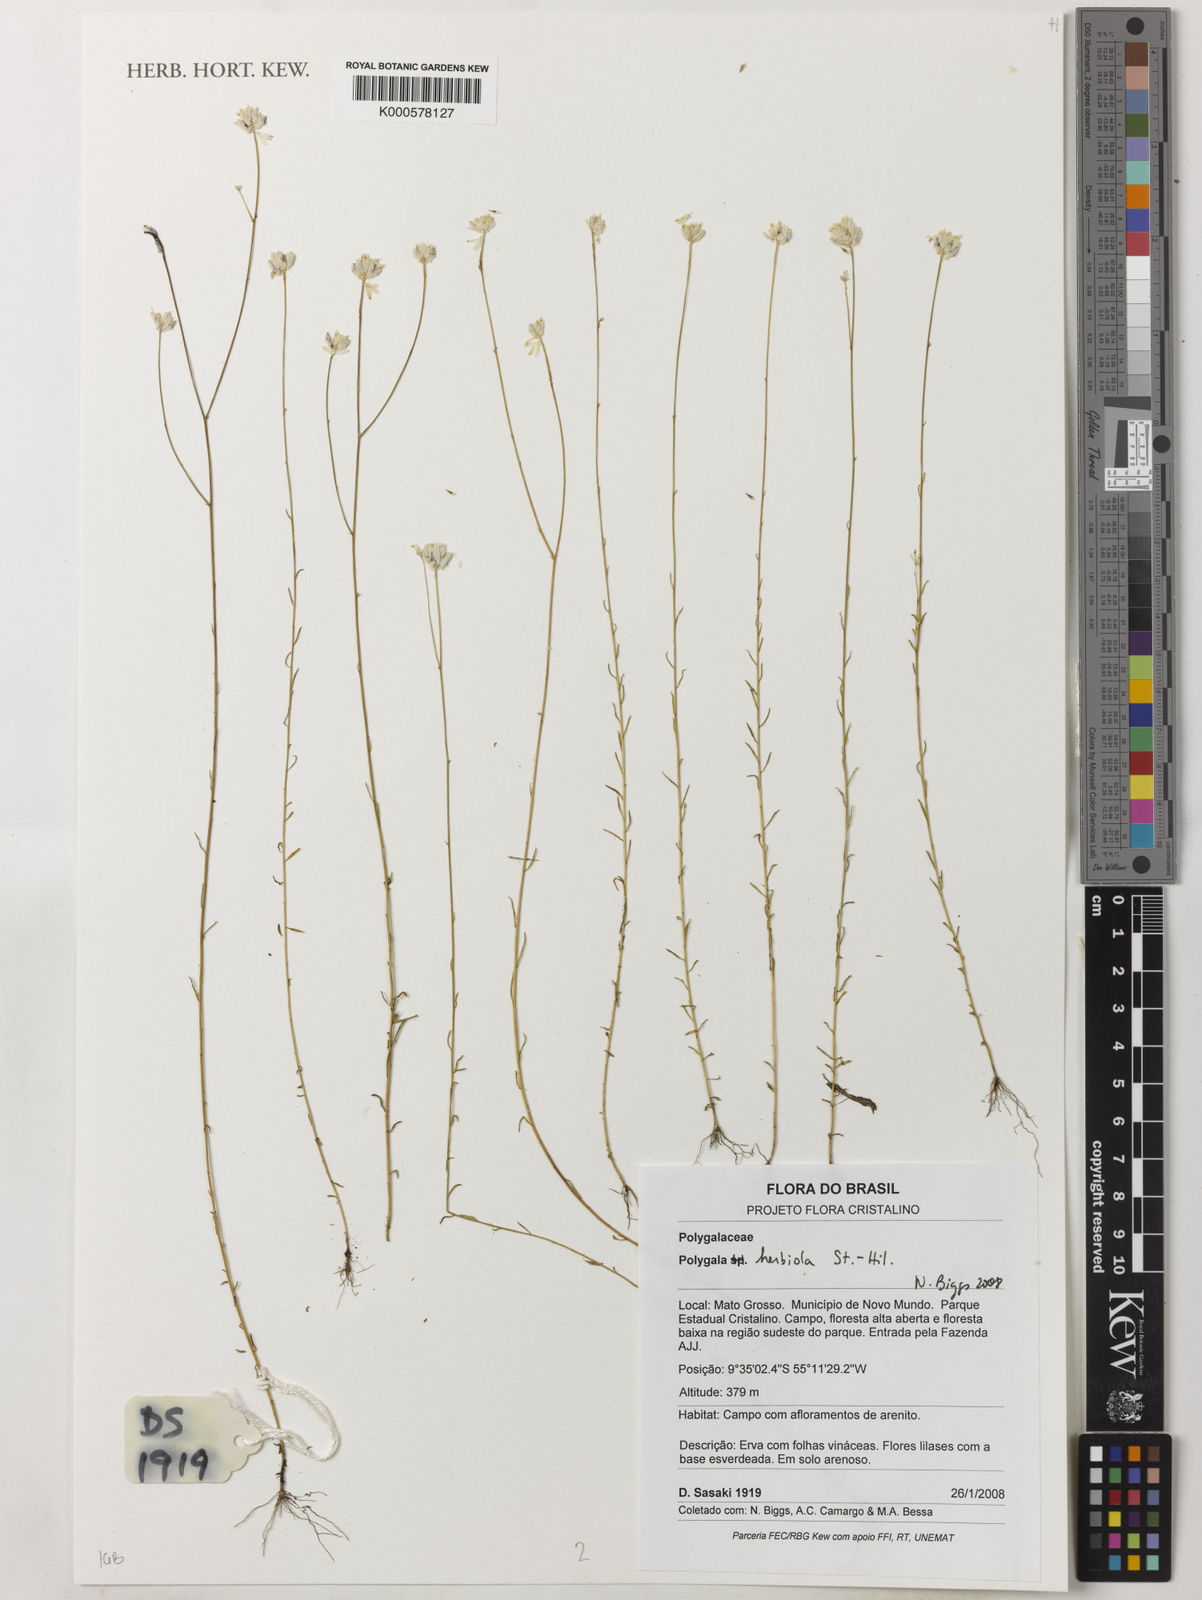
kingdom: Plantae
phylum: Tracheophyta
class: Magnoliopsida
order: Fabales
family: Polygalaceae
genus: Polygala
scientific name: Polygala herbiola
